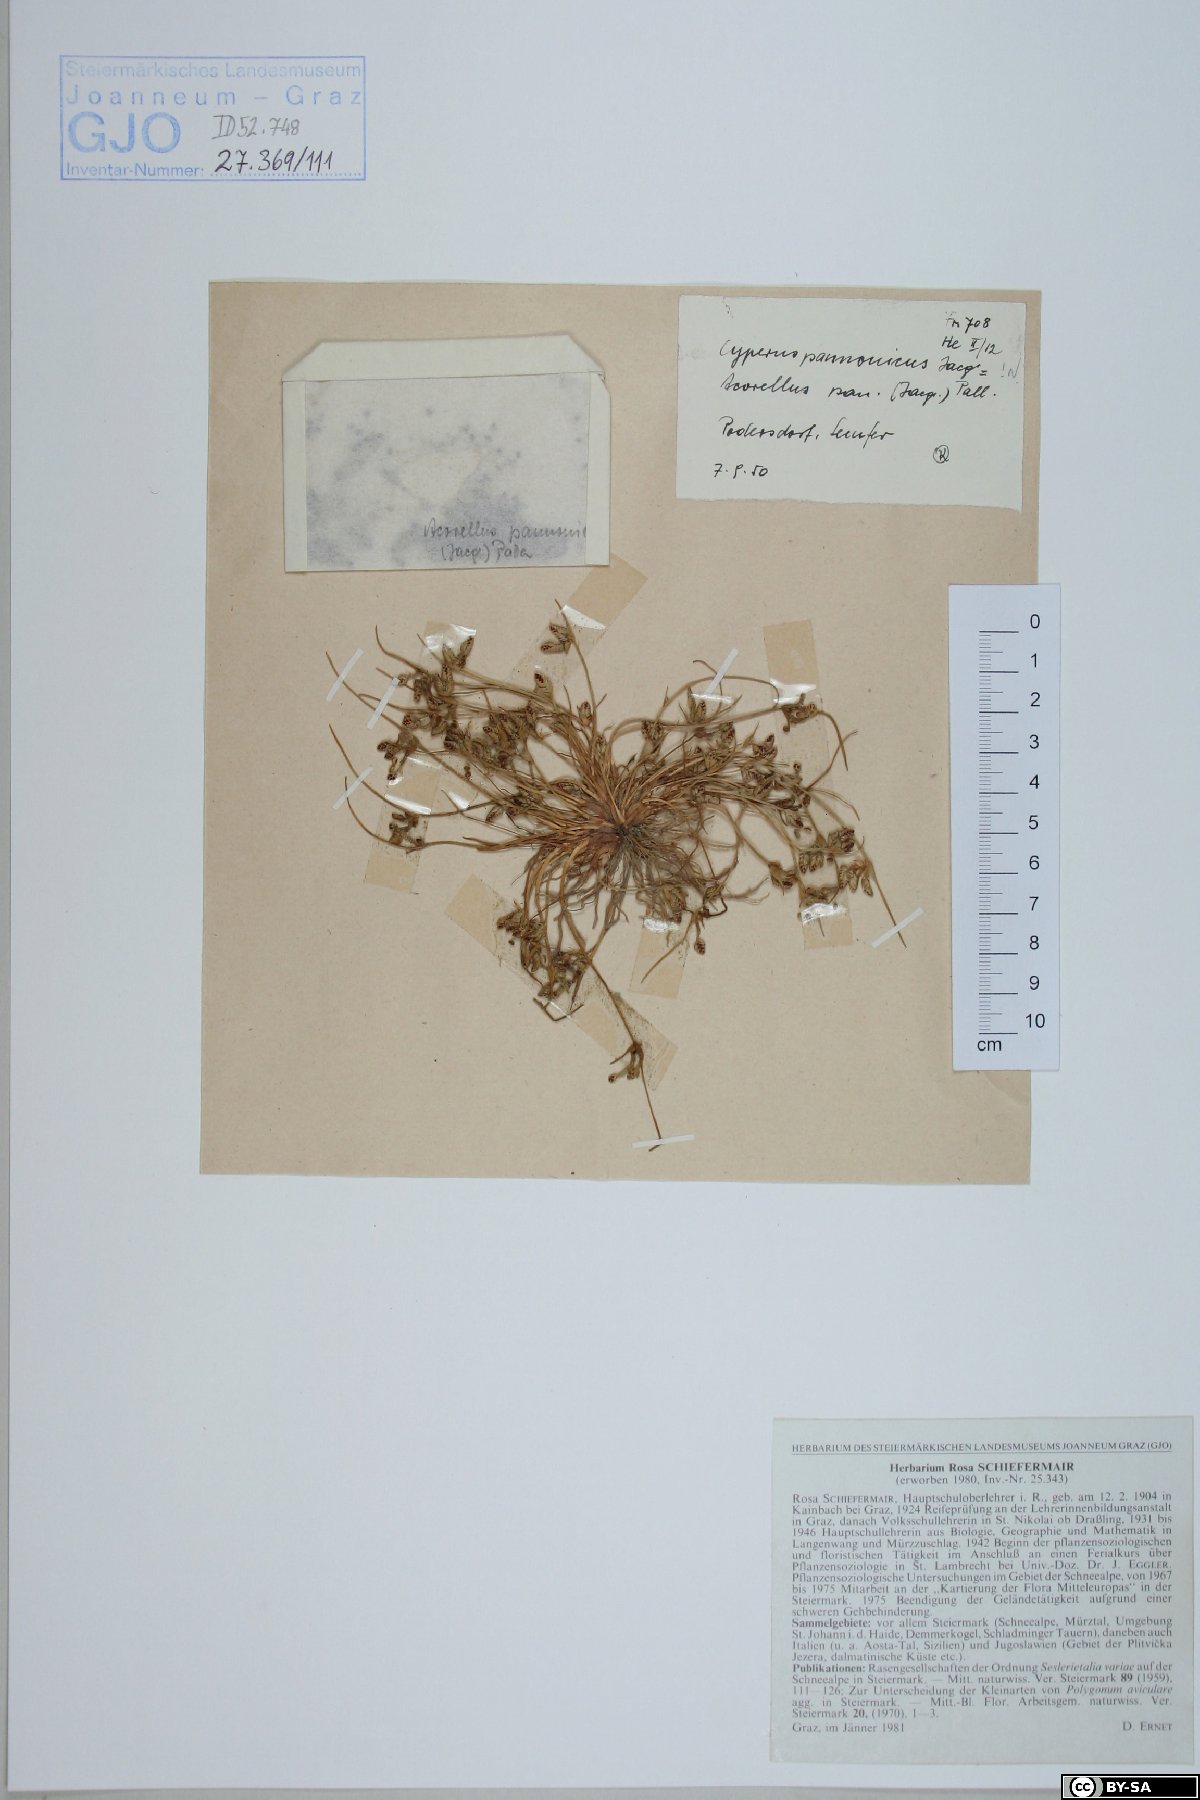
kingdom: Plantae
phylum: Tracheophyta
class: Liliopsida
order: Poales
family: Cyperaceae
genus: Cyperus
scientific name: Cyperus pannonicus
